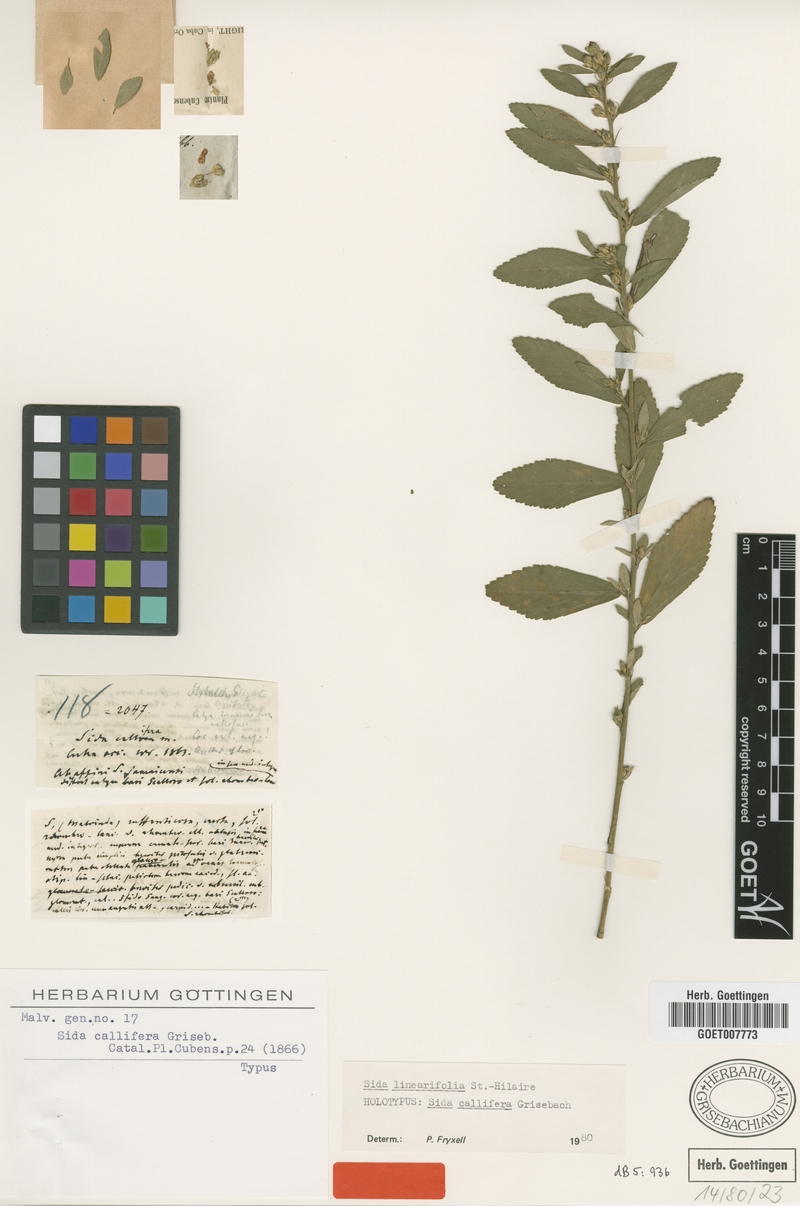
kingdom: Plantae
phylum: Tracheophyta
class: Magnoliopsida
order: Malvales
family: Malvaceae
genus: Sida
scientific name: Sida linearifolia
